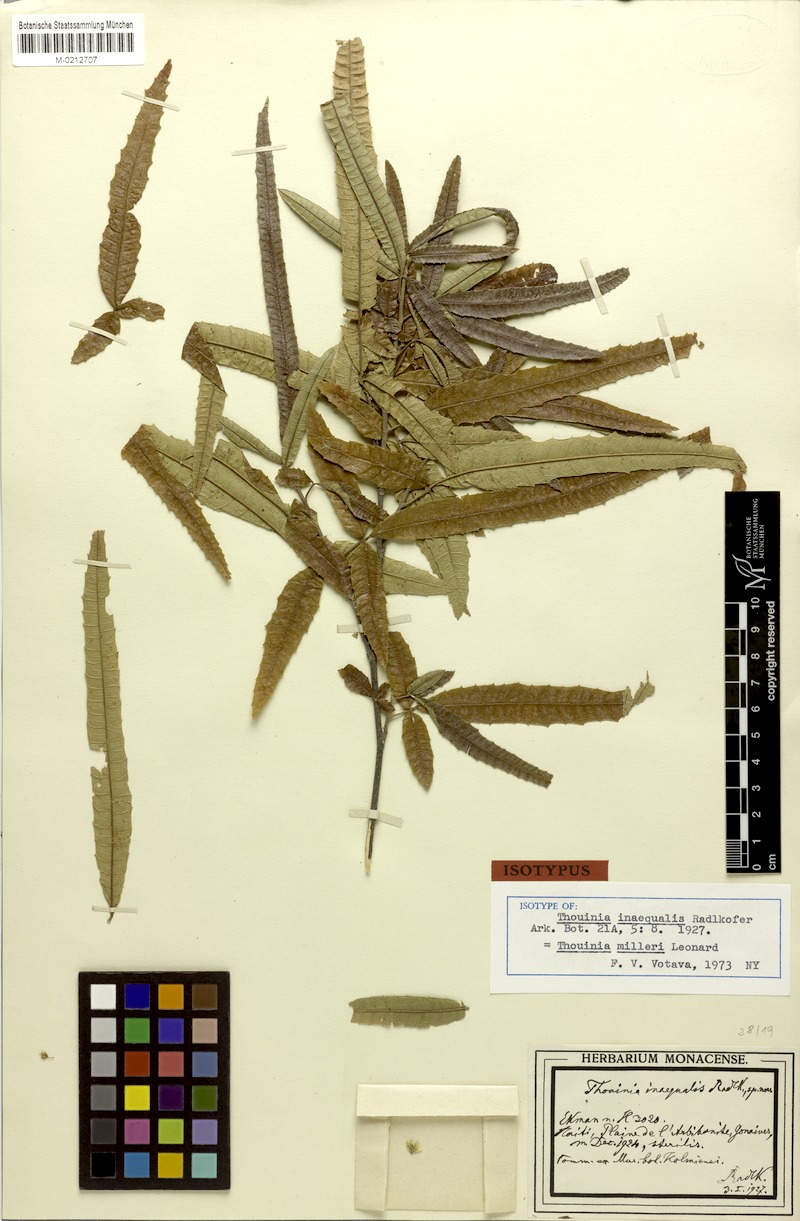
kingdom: Plantae
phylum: Tracheophyta
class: Magnoliopsida
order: Sapindales
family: Sapindaceae
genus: Thouinia
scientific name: Thouinia milleri
